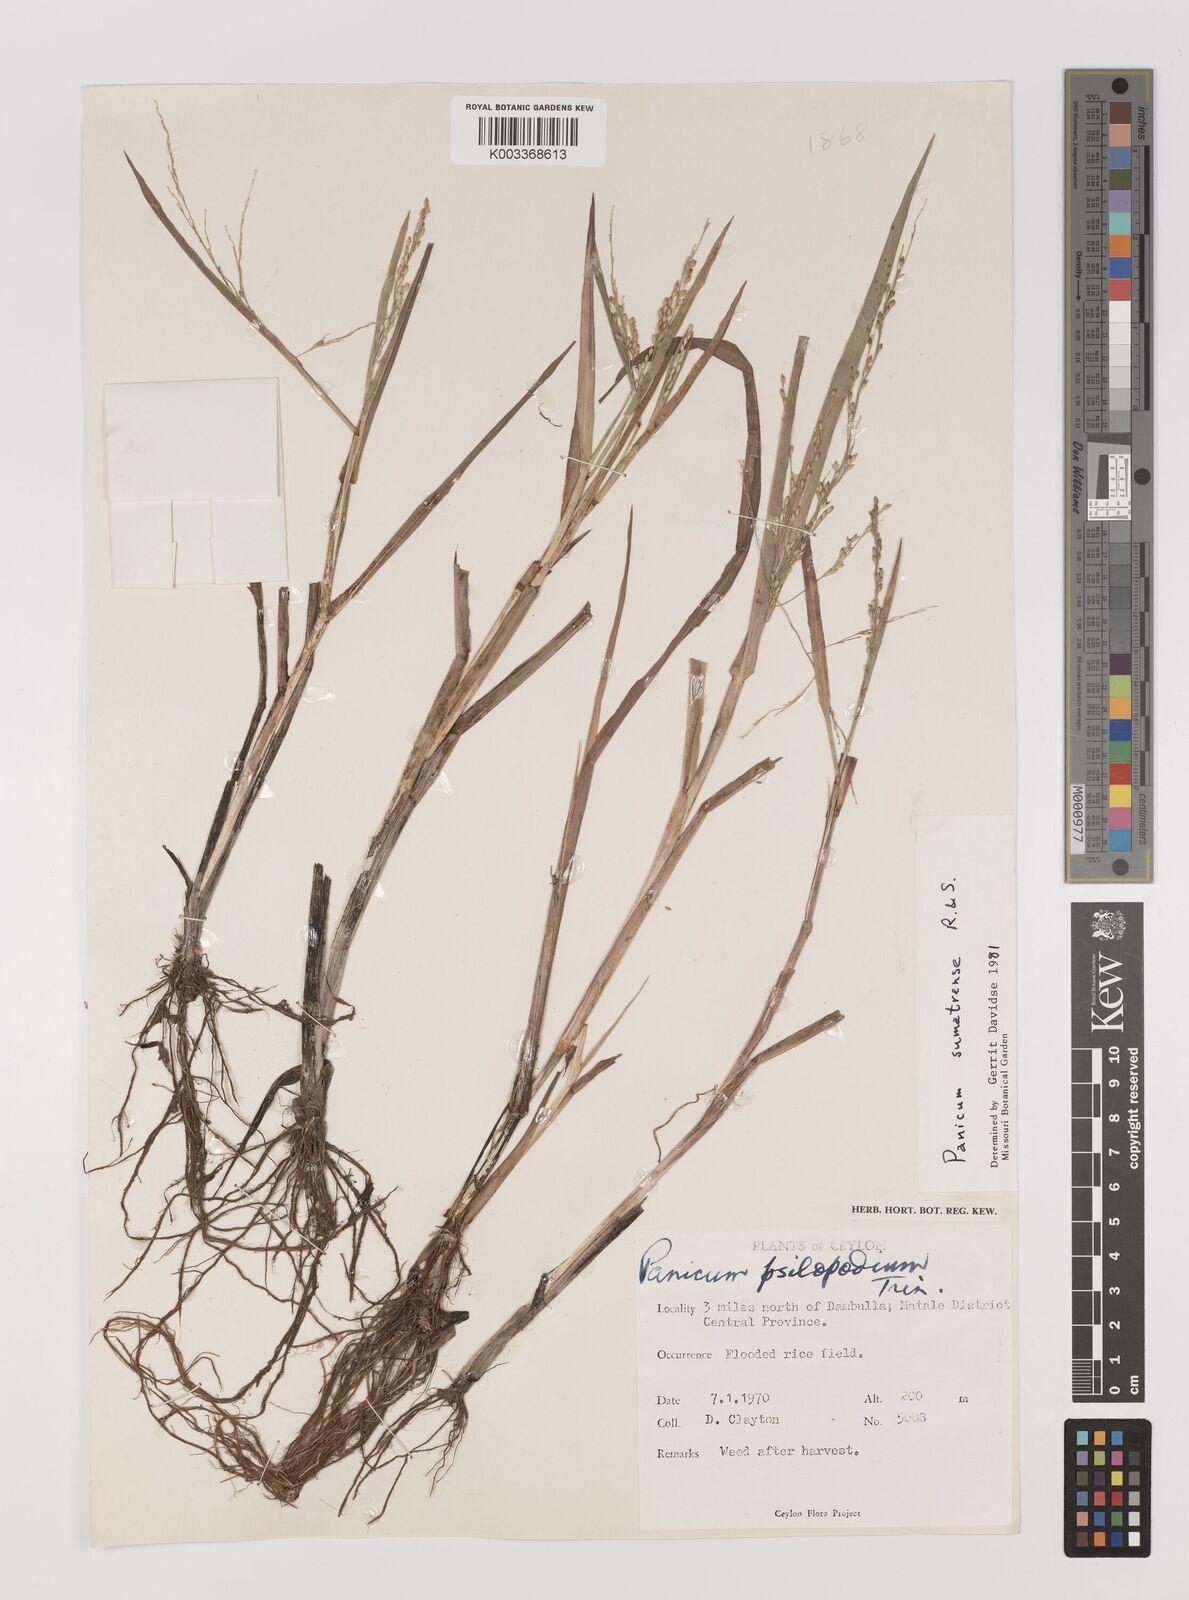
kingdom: Plantae
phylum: Tracheophyta
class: Liliopsida
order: Poales
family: Poaceae
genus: Panicum
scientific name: Panicum sumatrense
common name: Little millet
